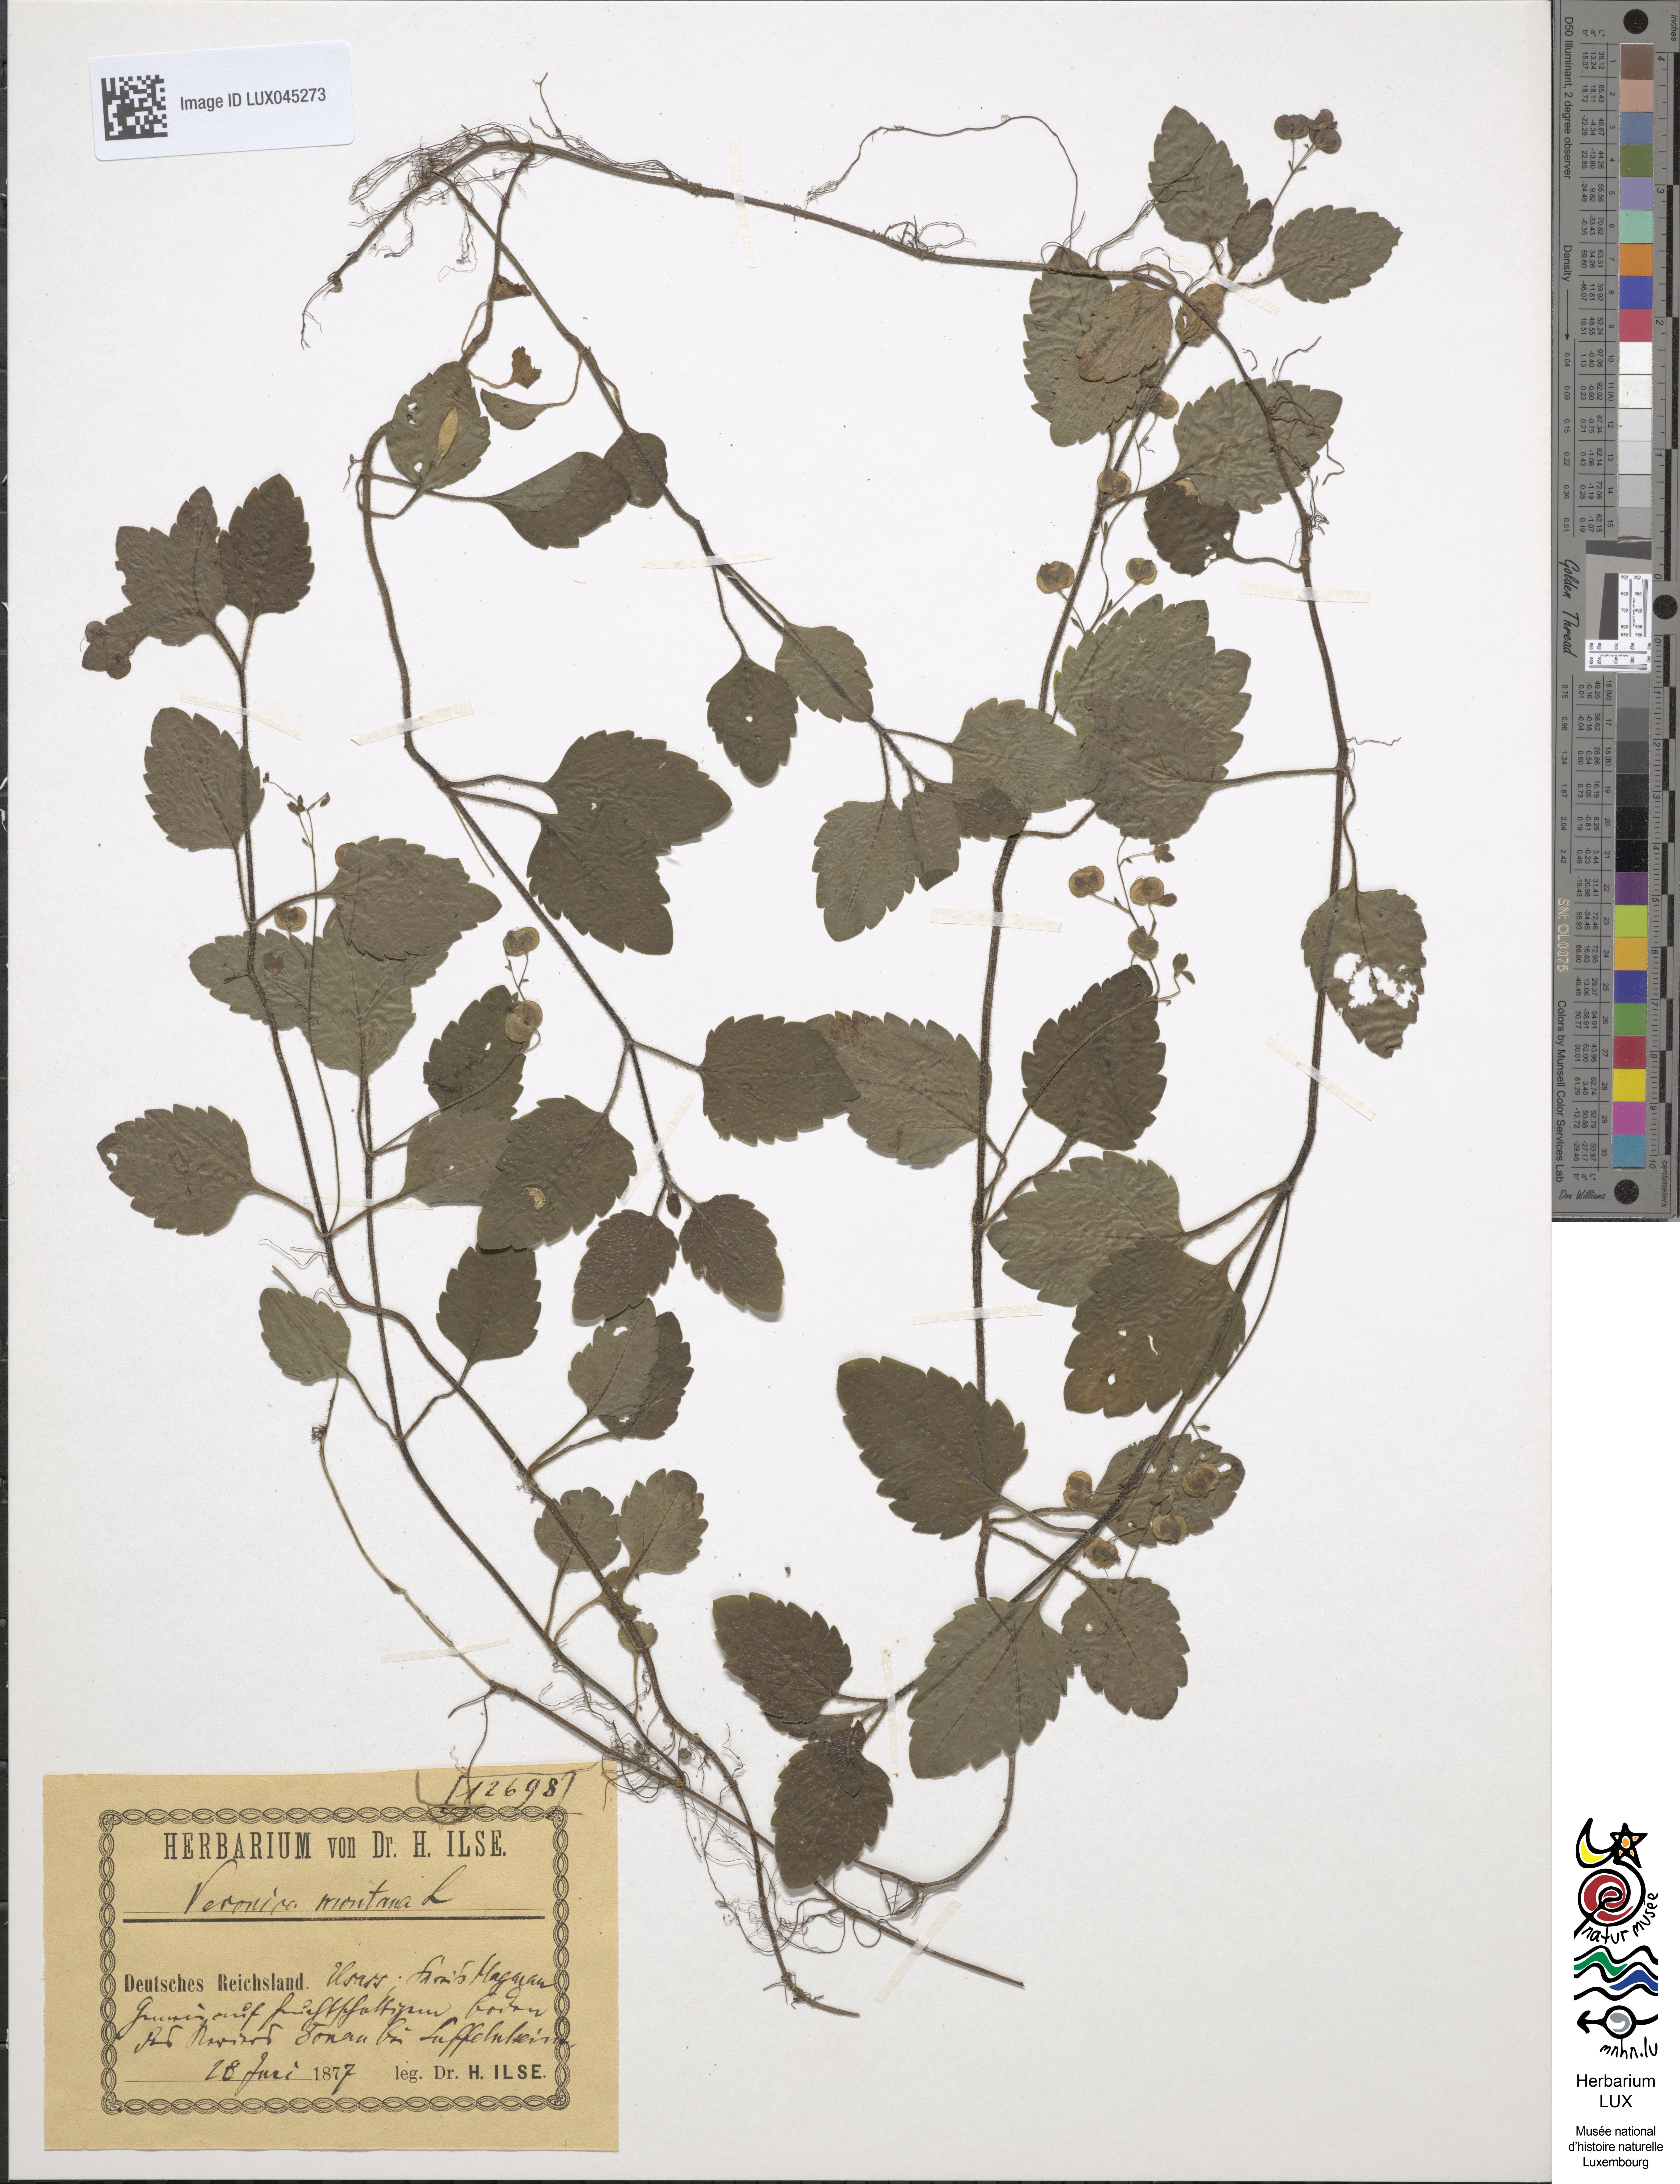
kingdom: Plantae
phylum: Tracheophyta
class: Magnoliopsida
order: Lamiales
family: Plantaginaceae
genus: Veronica
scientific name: Veronica montana
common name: Wood speedwell
